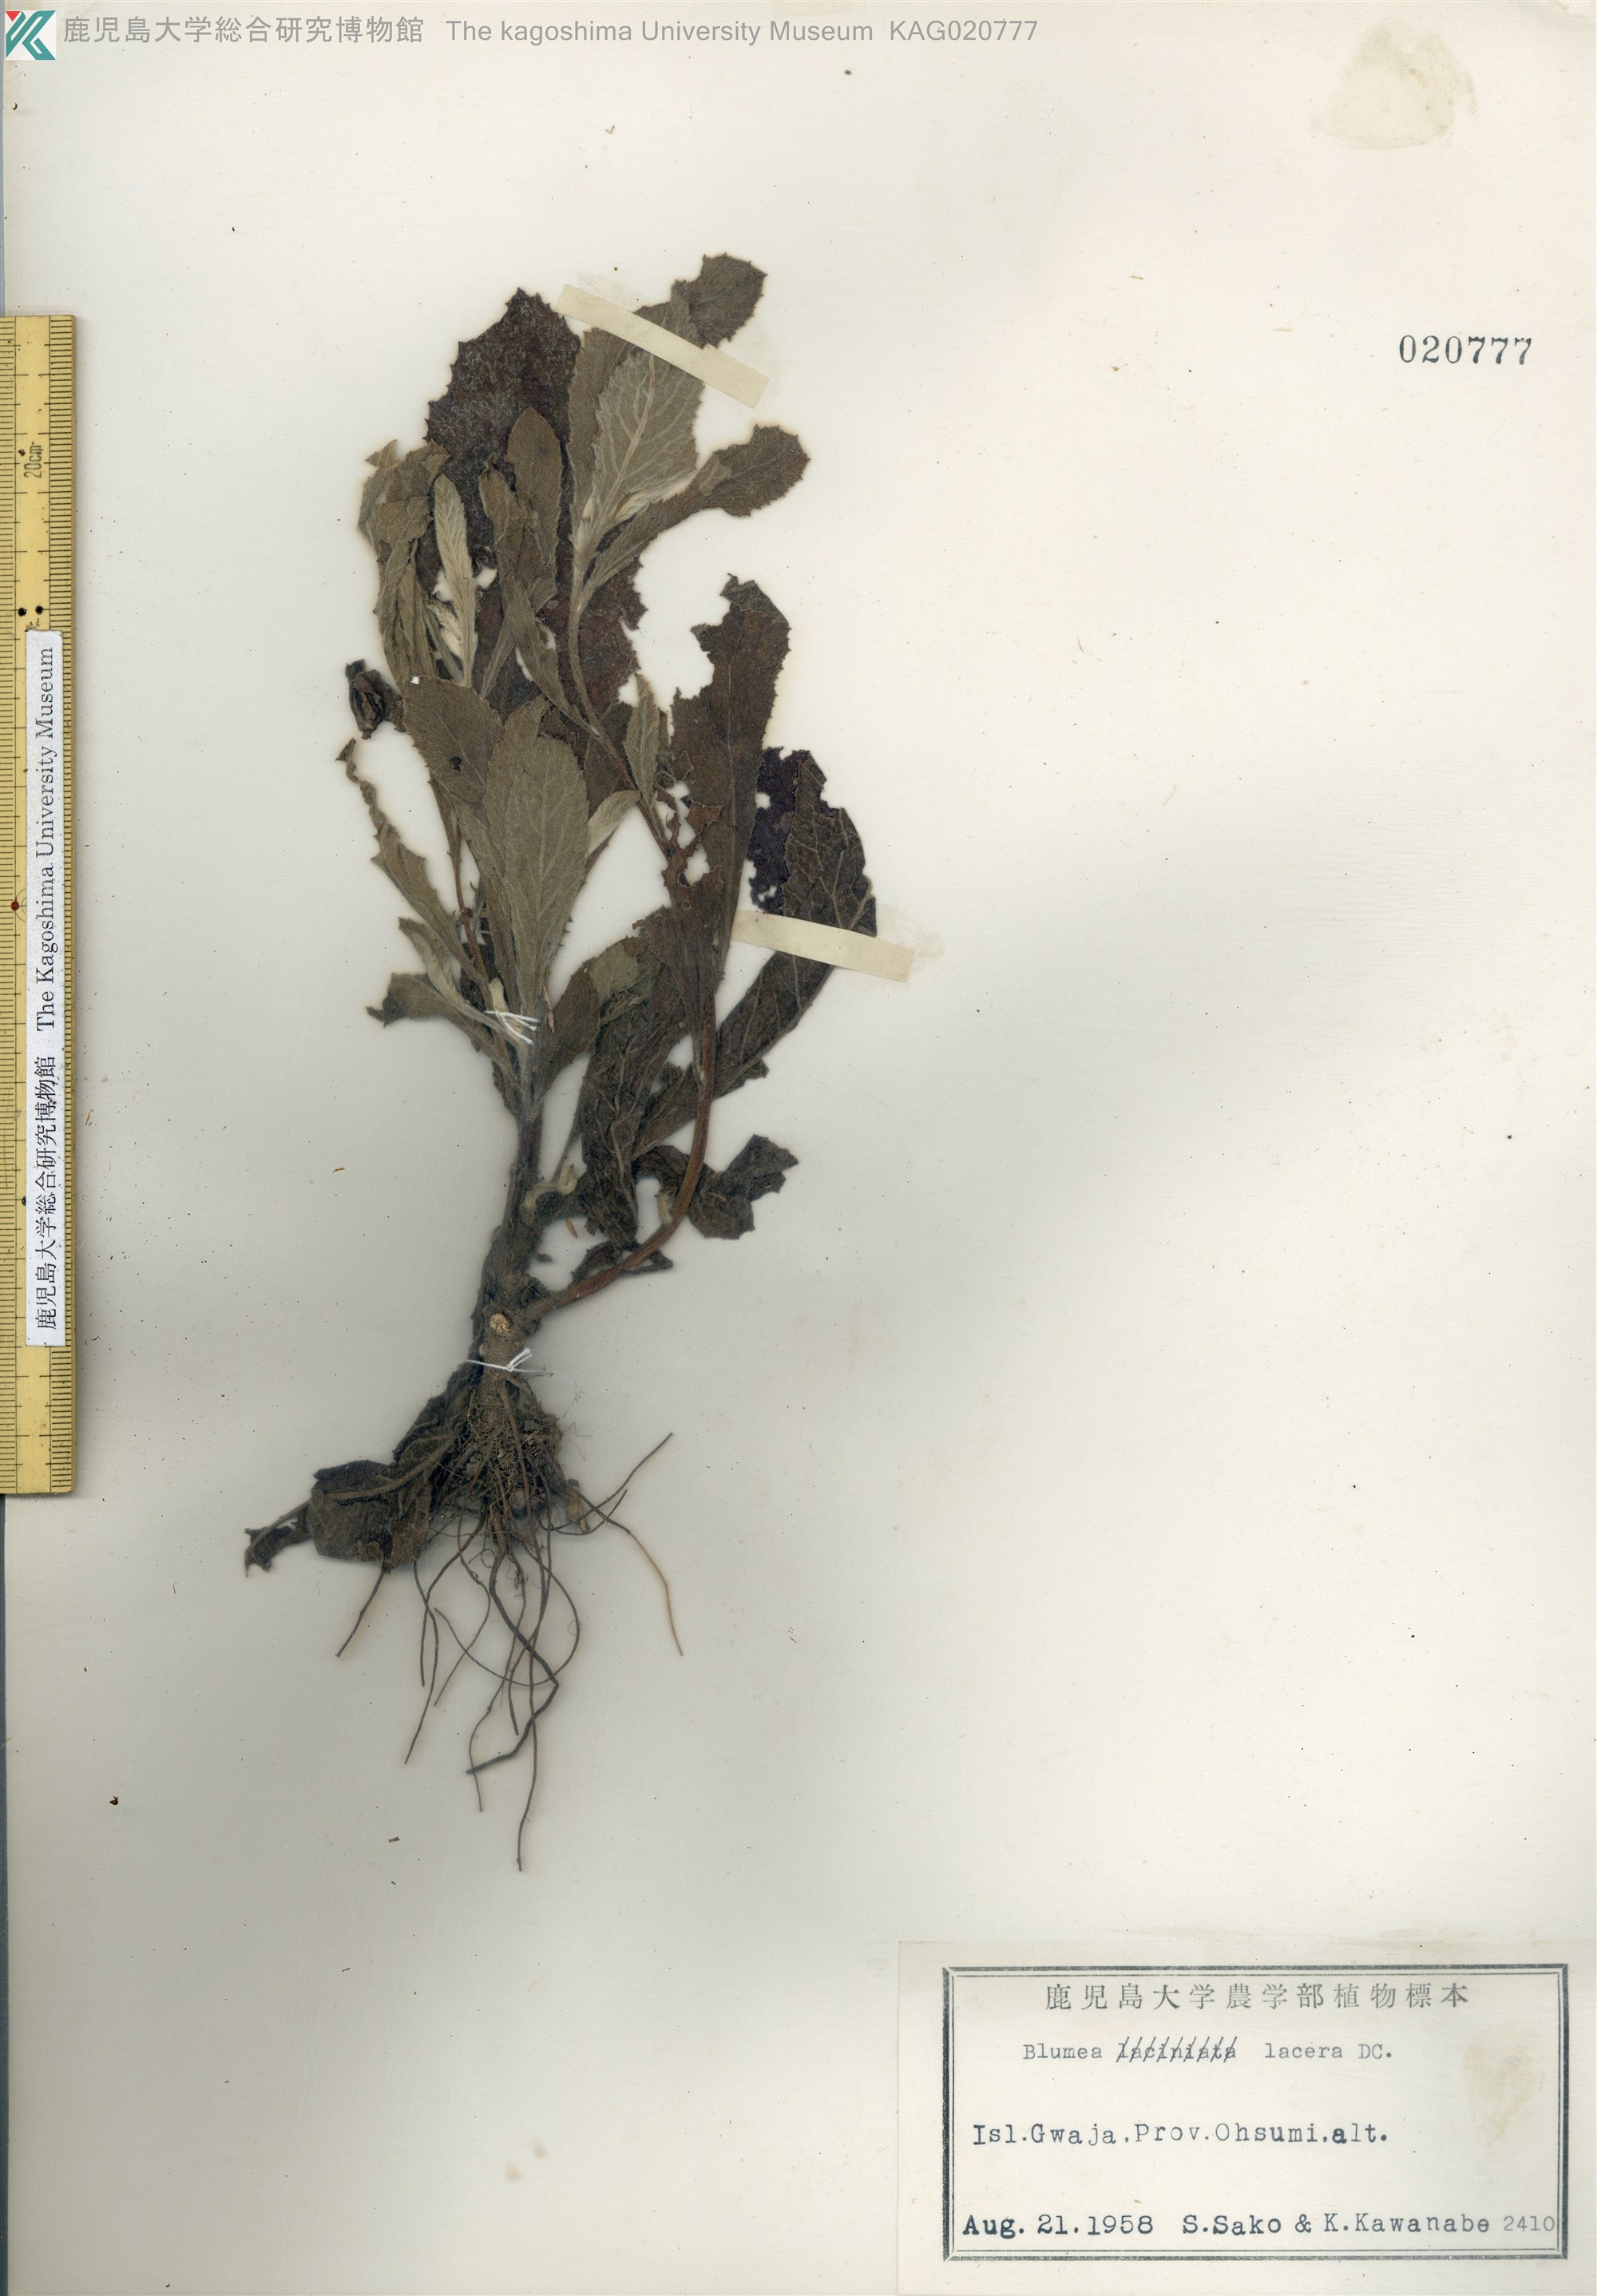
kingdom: Plantae
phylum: Tracheophyta
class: Magnoliopsida
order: Asterales
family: Asteraceae
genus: Blumea
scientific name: Blumea lacera
